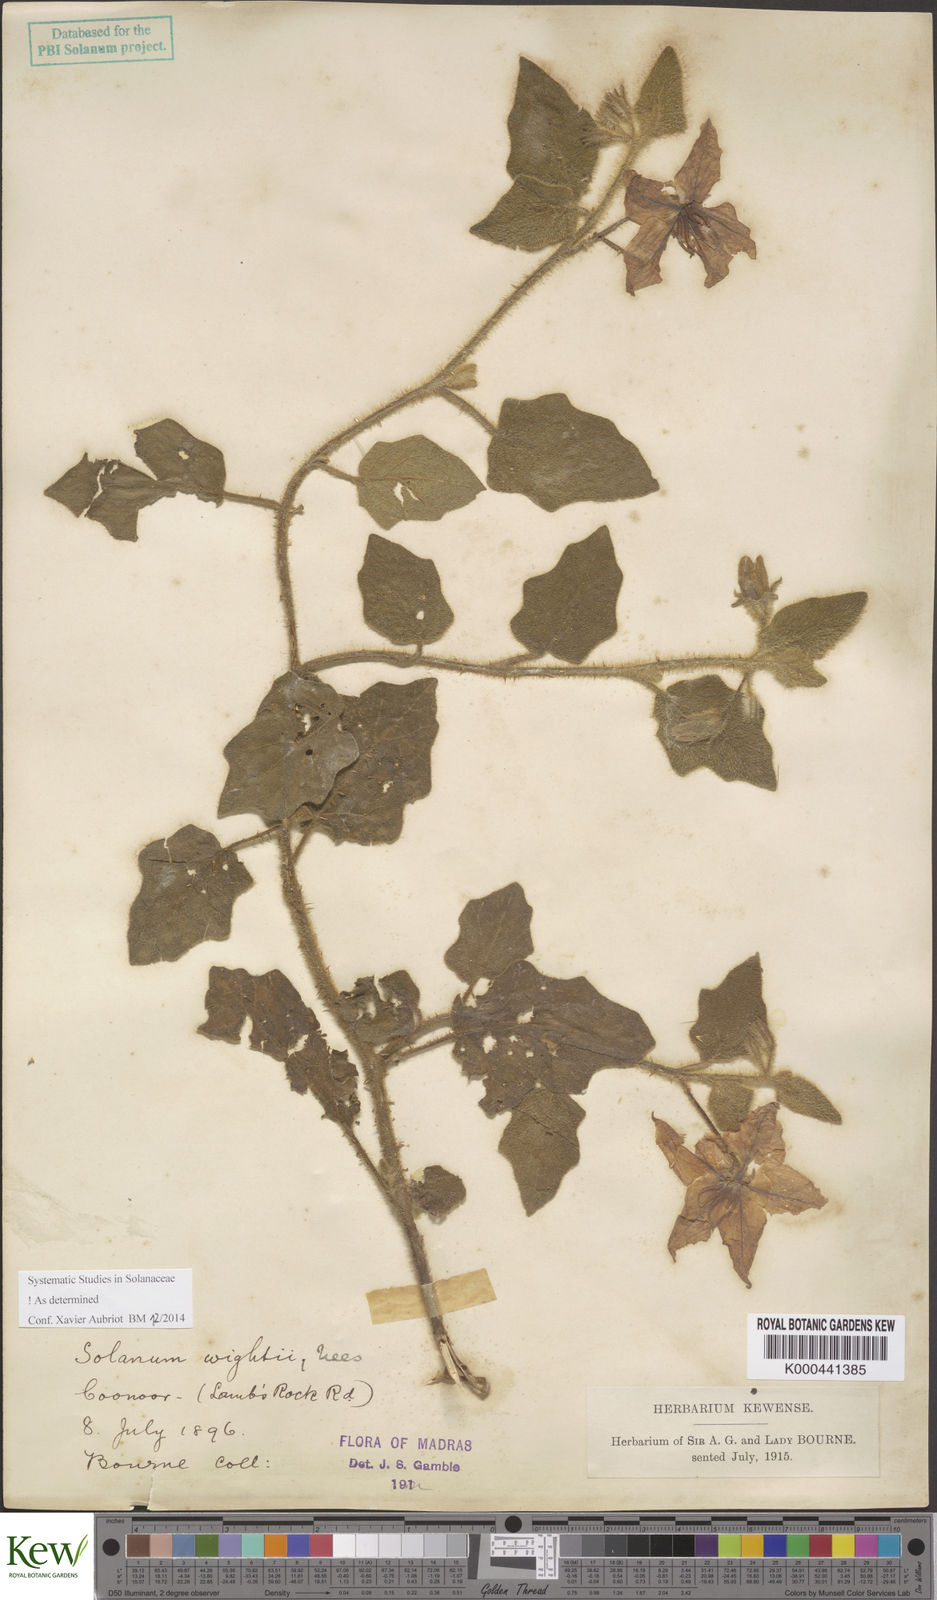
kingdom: Plantae
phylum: Tracheophyta
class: Magnoliopsida
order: Solanales
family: Solanaceae
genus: Solanum
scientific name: Solanum wightii
